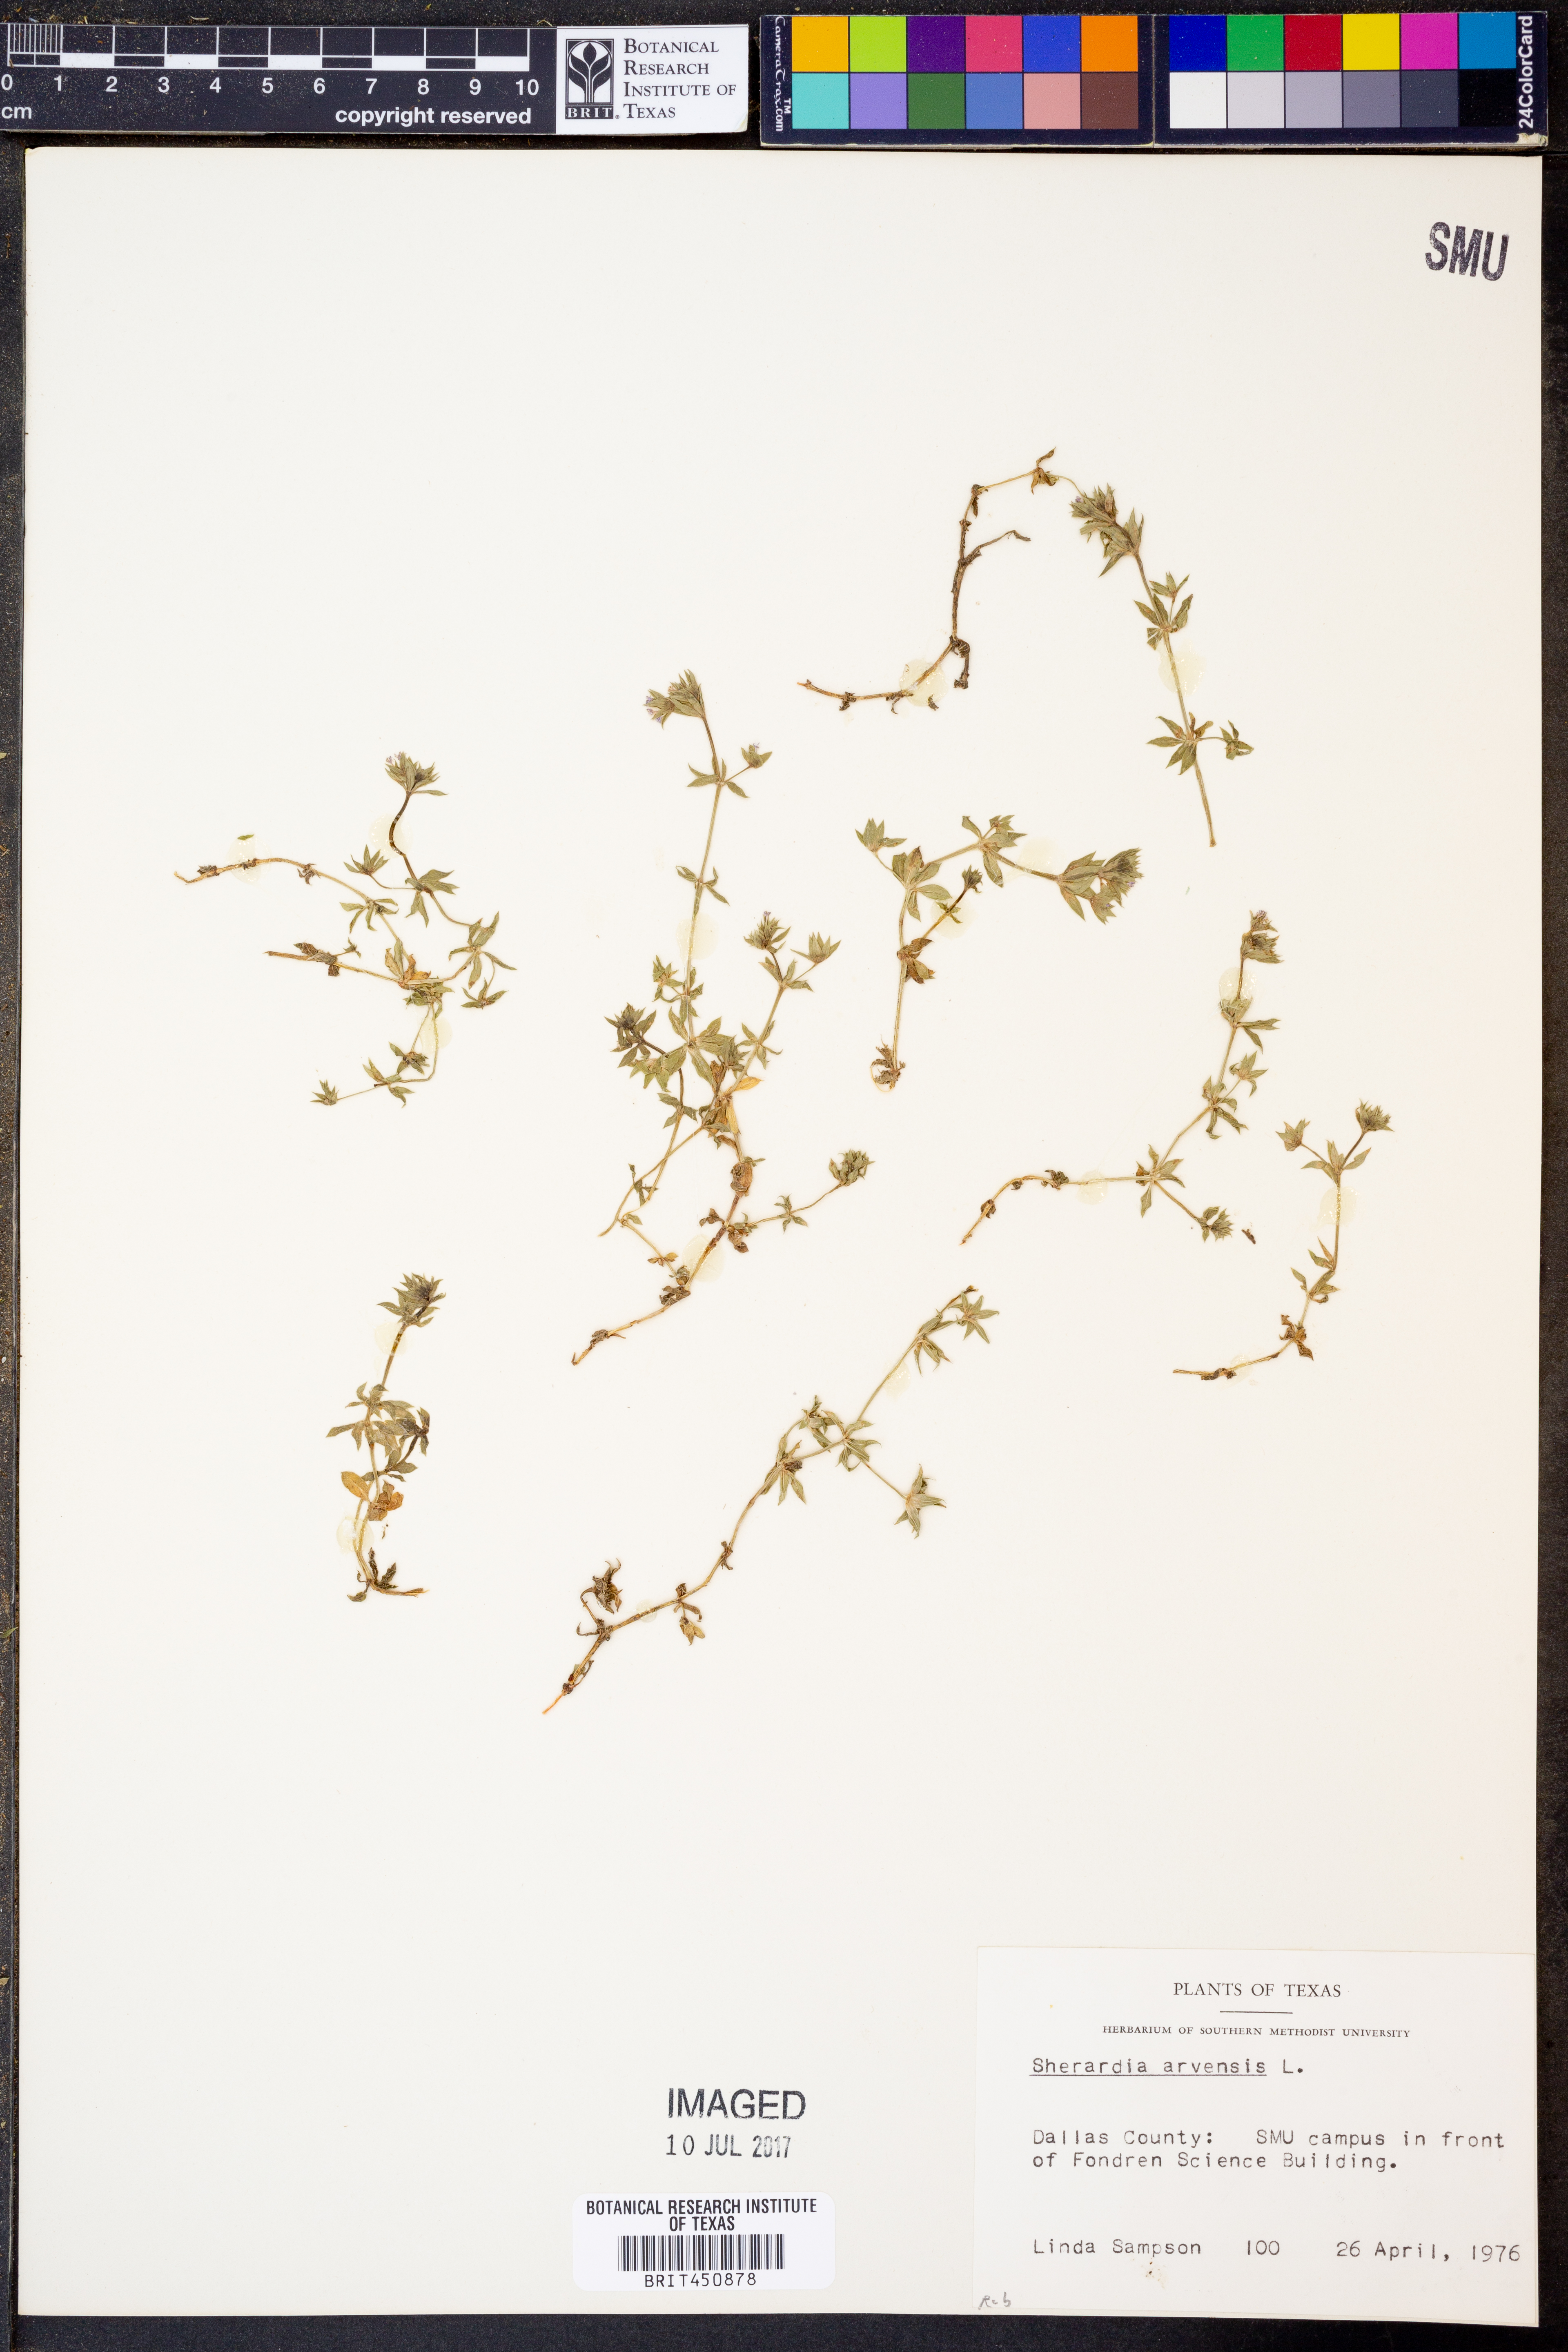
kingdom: Plantae
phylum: Tracheophyta
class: Magnoliopsida
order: Gentianales
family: Rubiaceae
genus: Sherardia
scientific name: Sherardia arvensis
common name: Field madder
